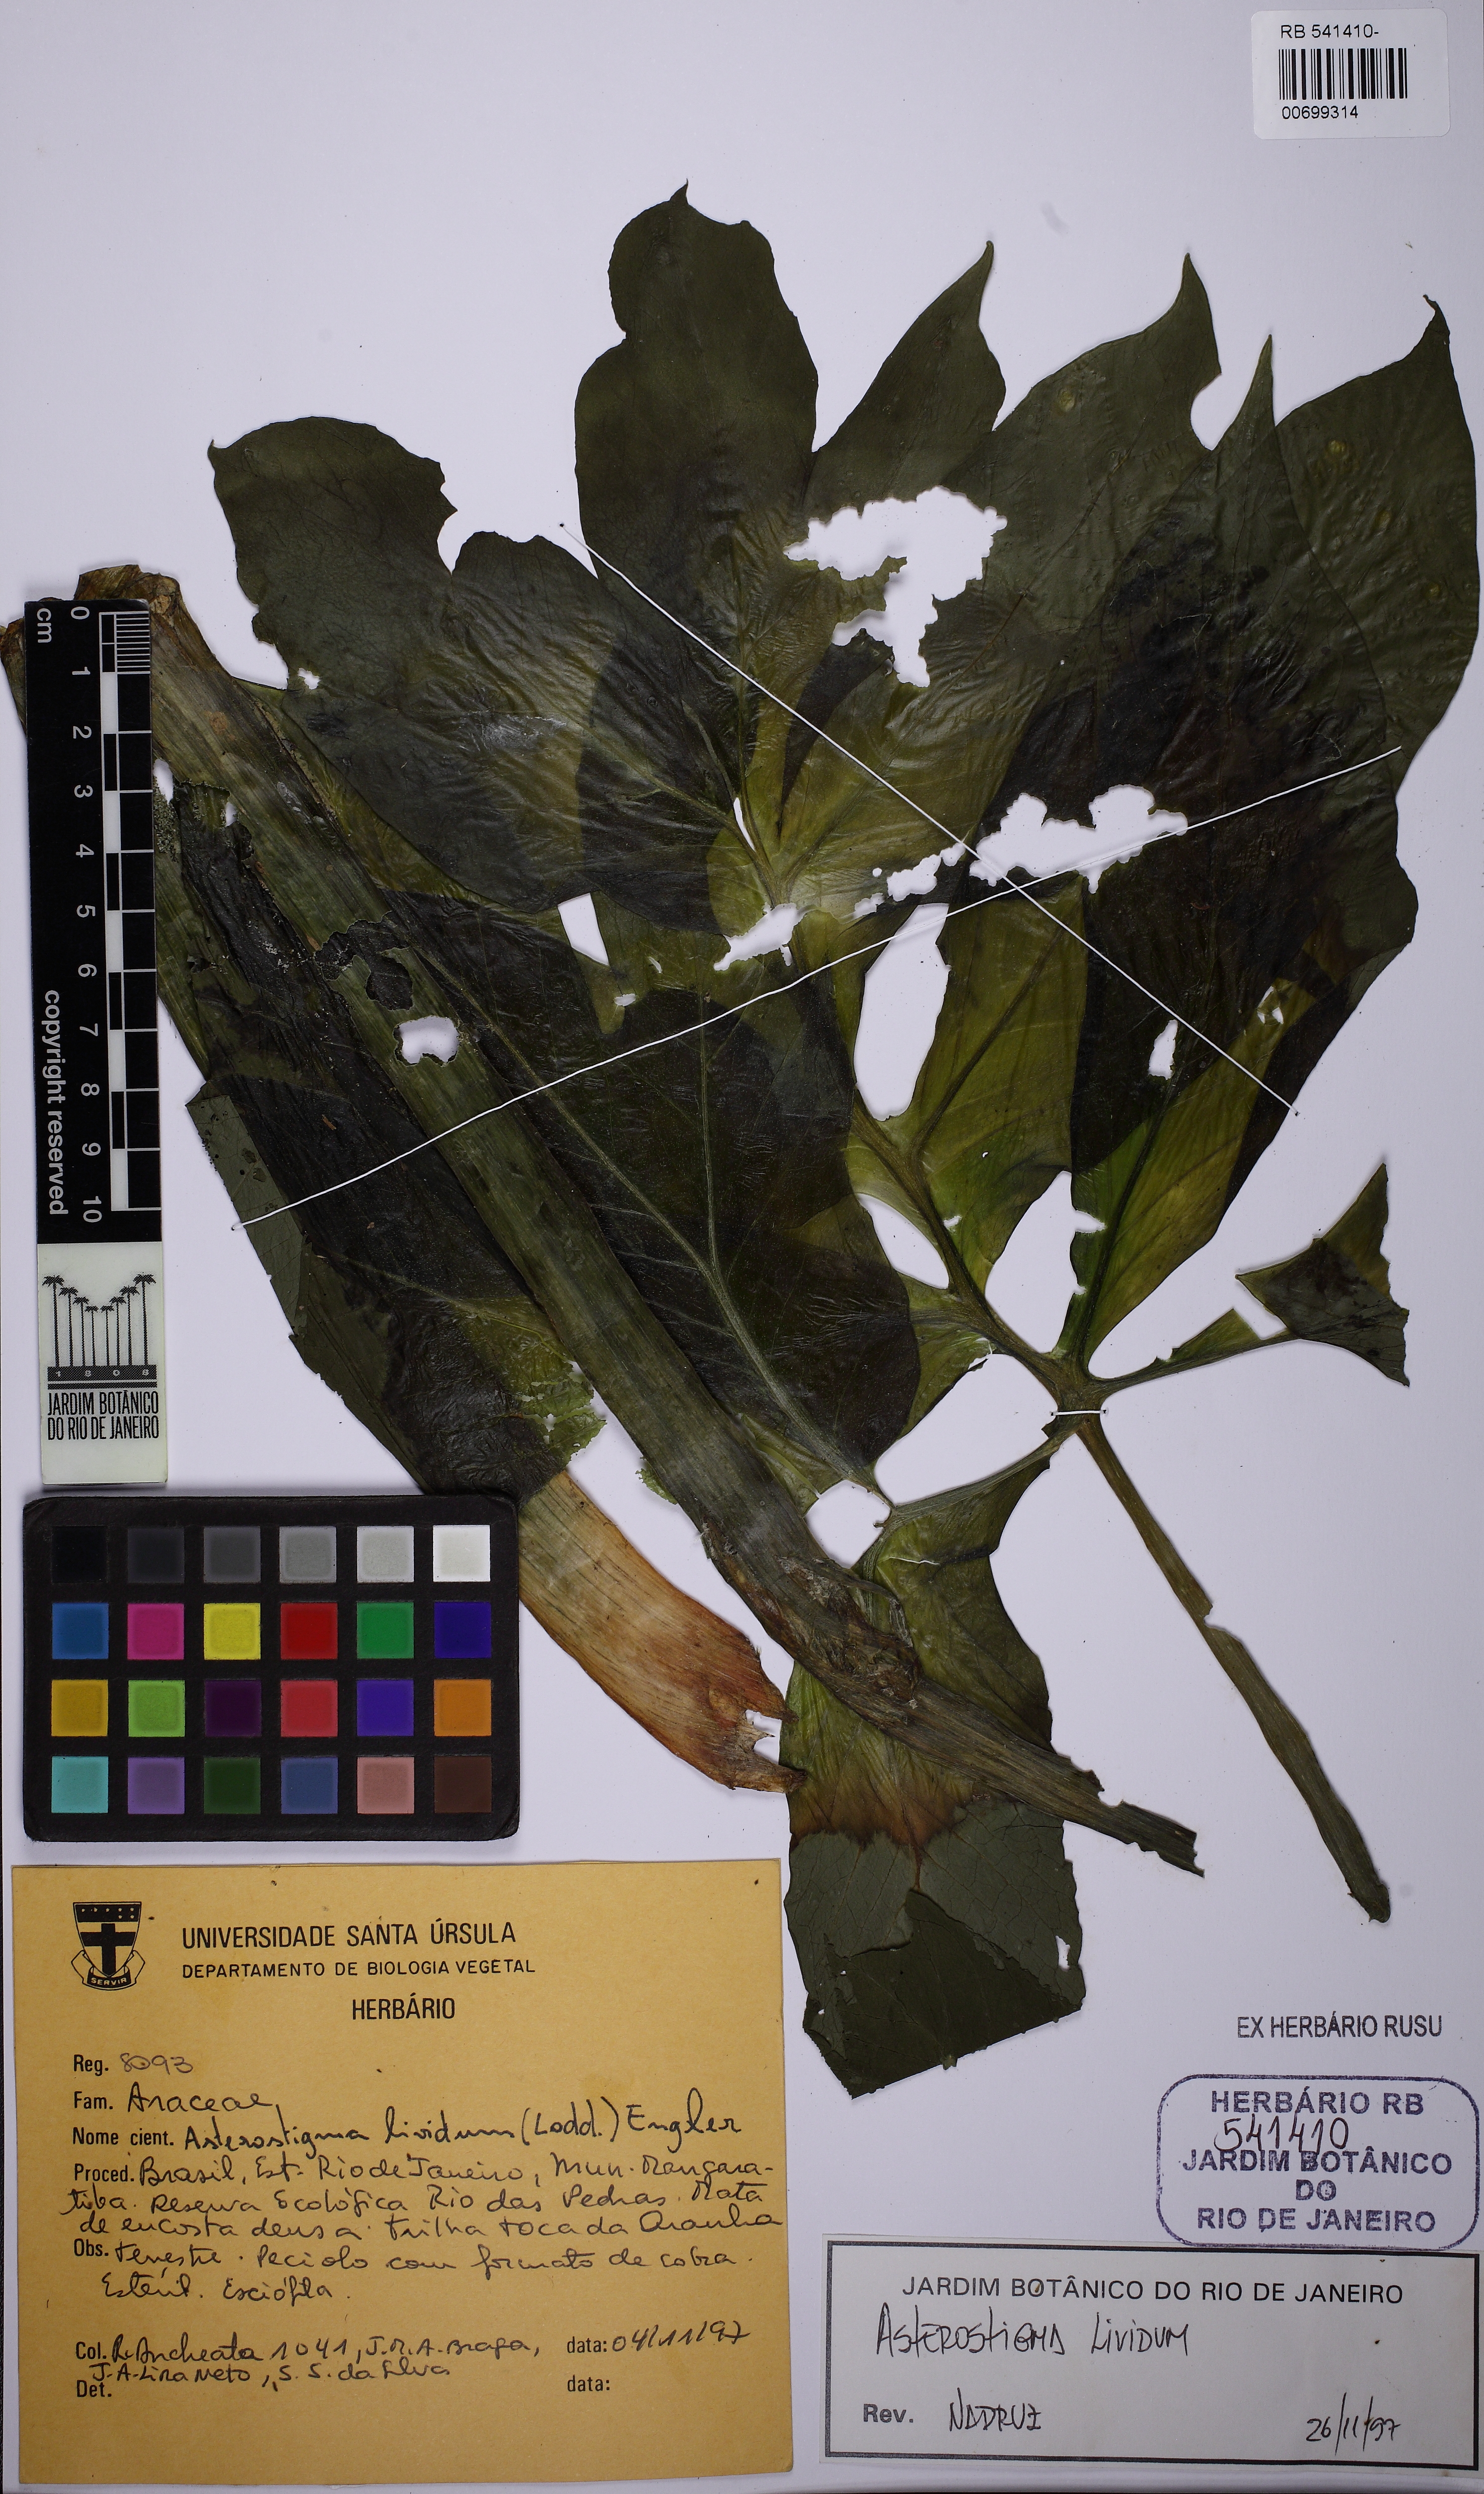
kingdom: Plantae
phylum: Tracheophyta
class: Liliopsida
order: Alismatales
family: Araceae
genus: Asterostigma
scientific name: Asterostigma luridum
